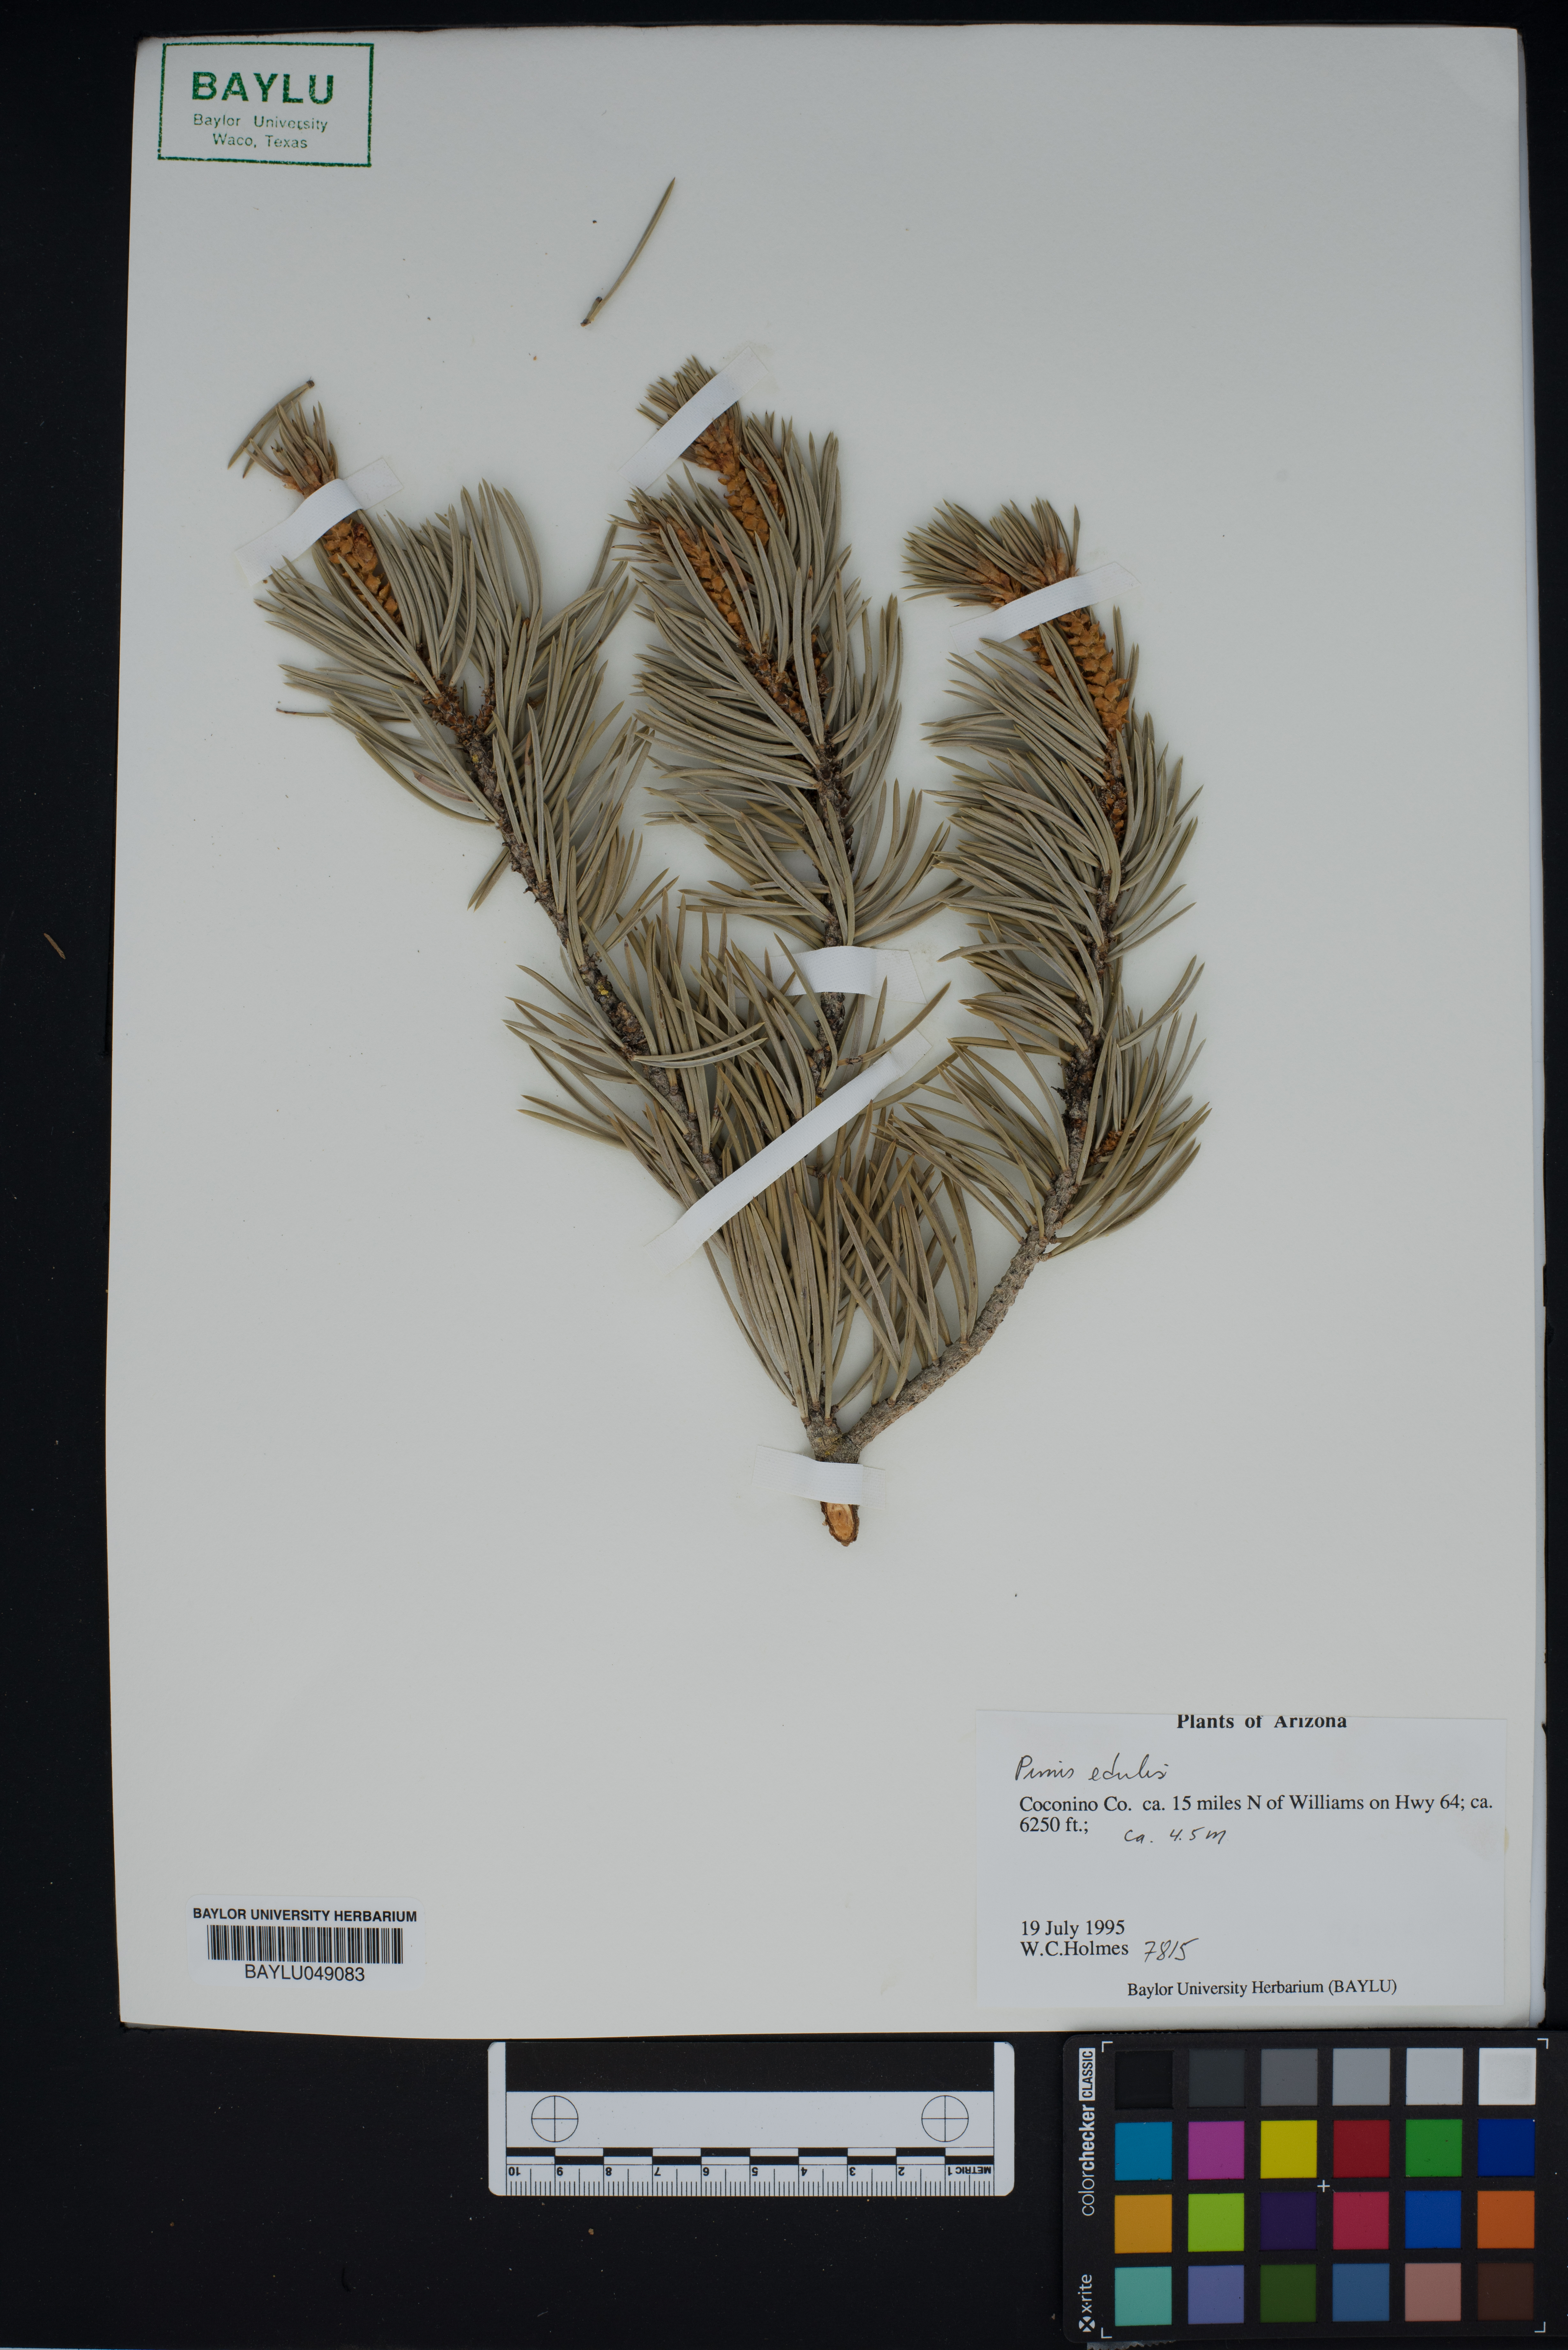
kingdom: Plantae
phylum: Tracheophyta
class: Pinopsida
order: Pinales
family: Pinaceae
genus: Pinus
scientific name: Pinus edulis
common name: Colorado pinyon
